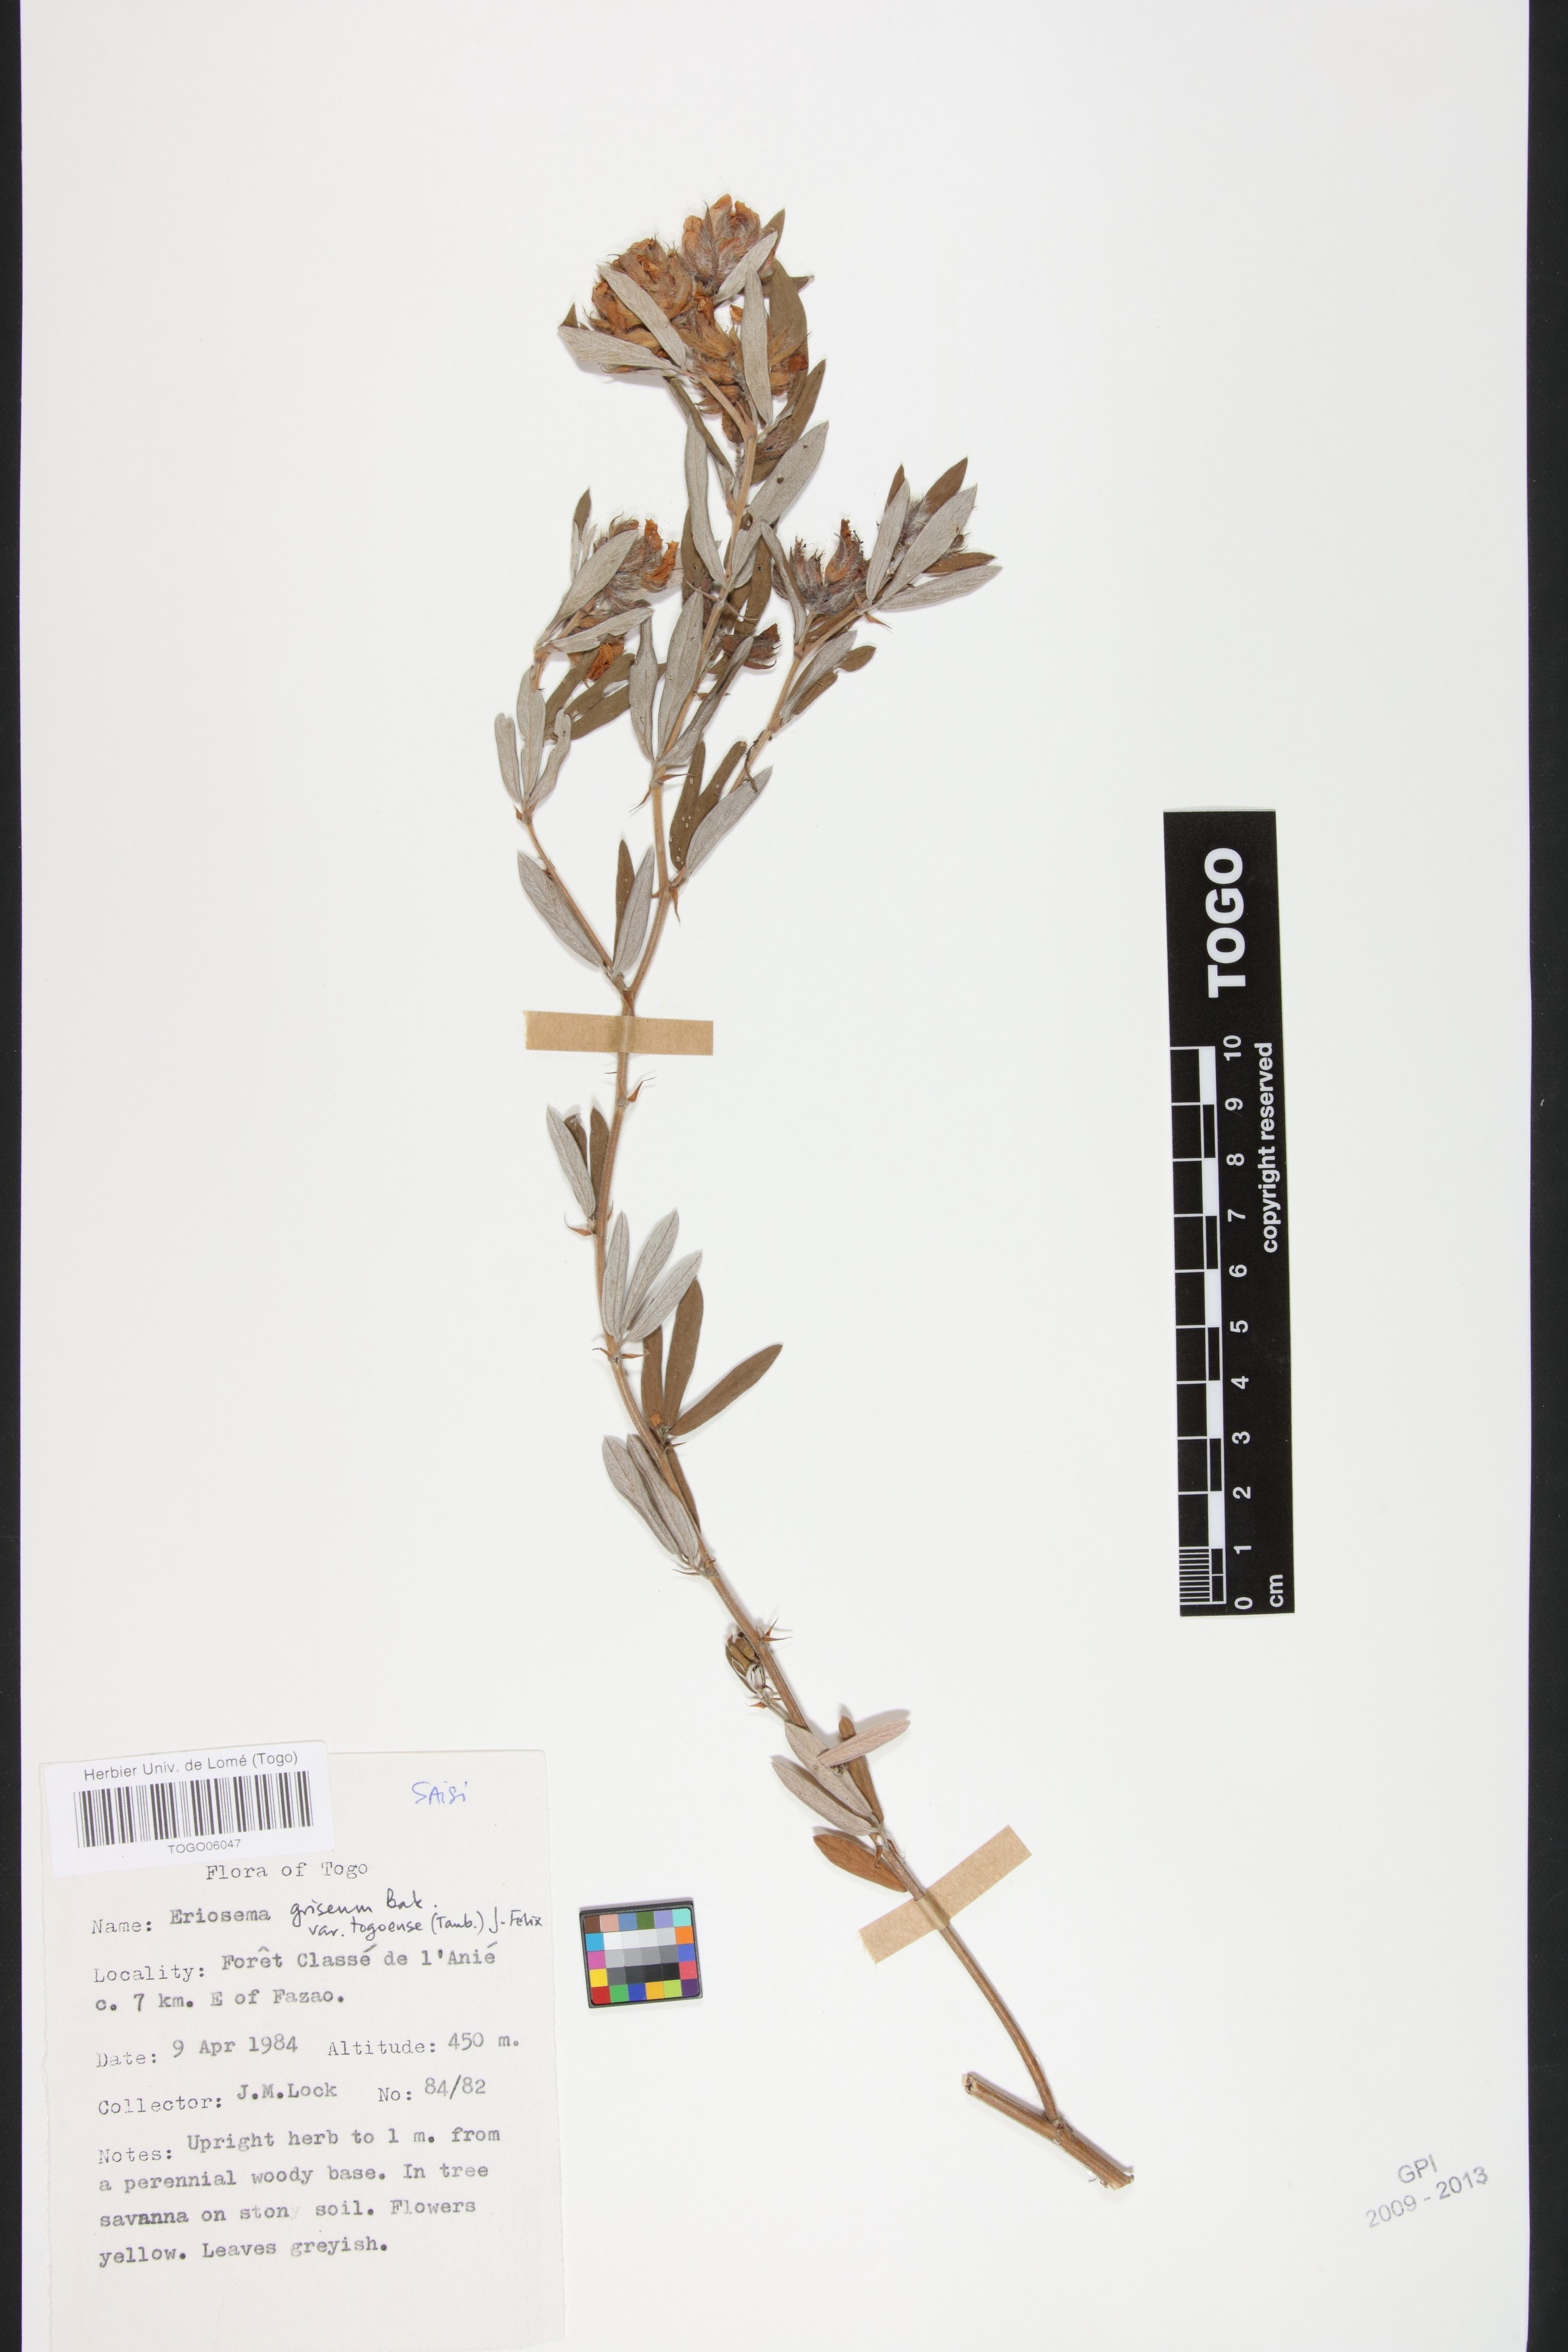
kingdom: Plantae
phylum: Tracheophyta
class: Magnoliopsida
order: Fabales
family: Fabaceae
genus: Eriosema
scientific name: Eriosema griseum
